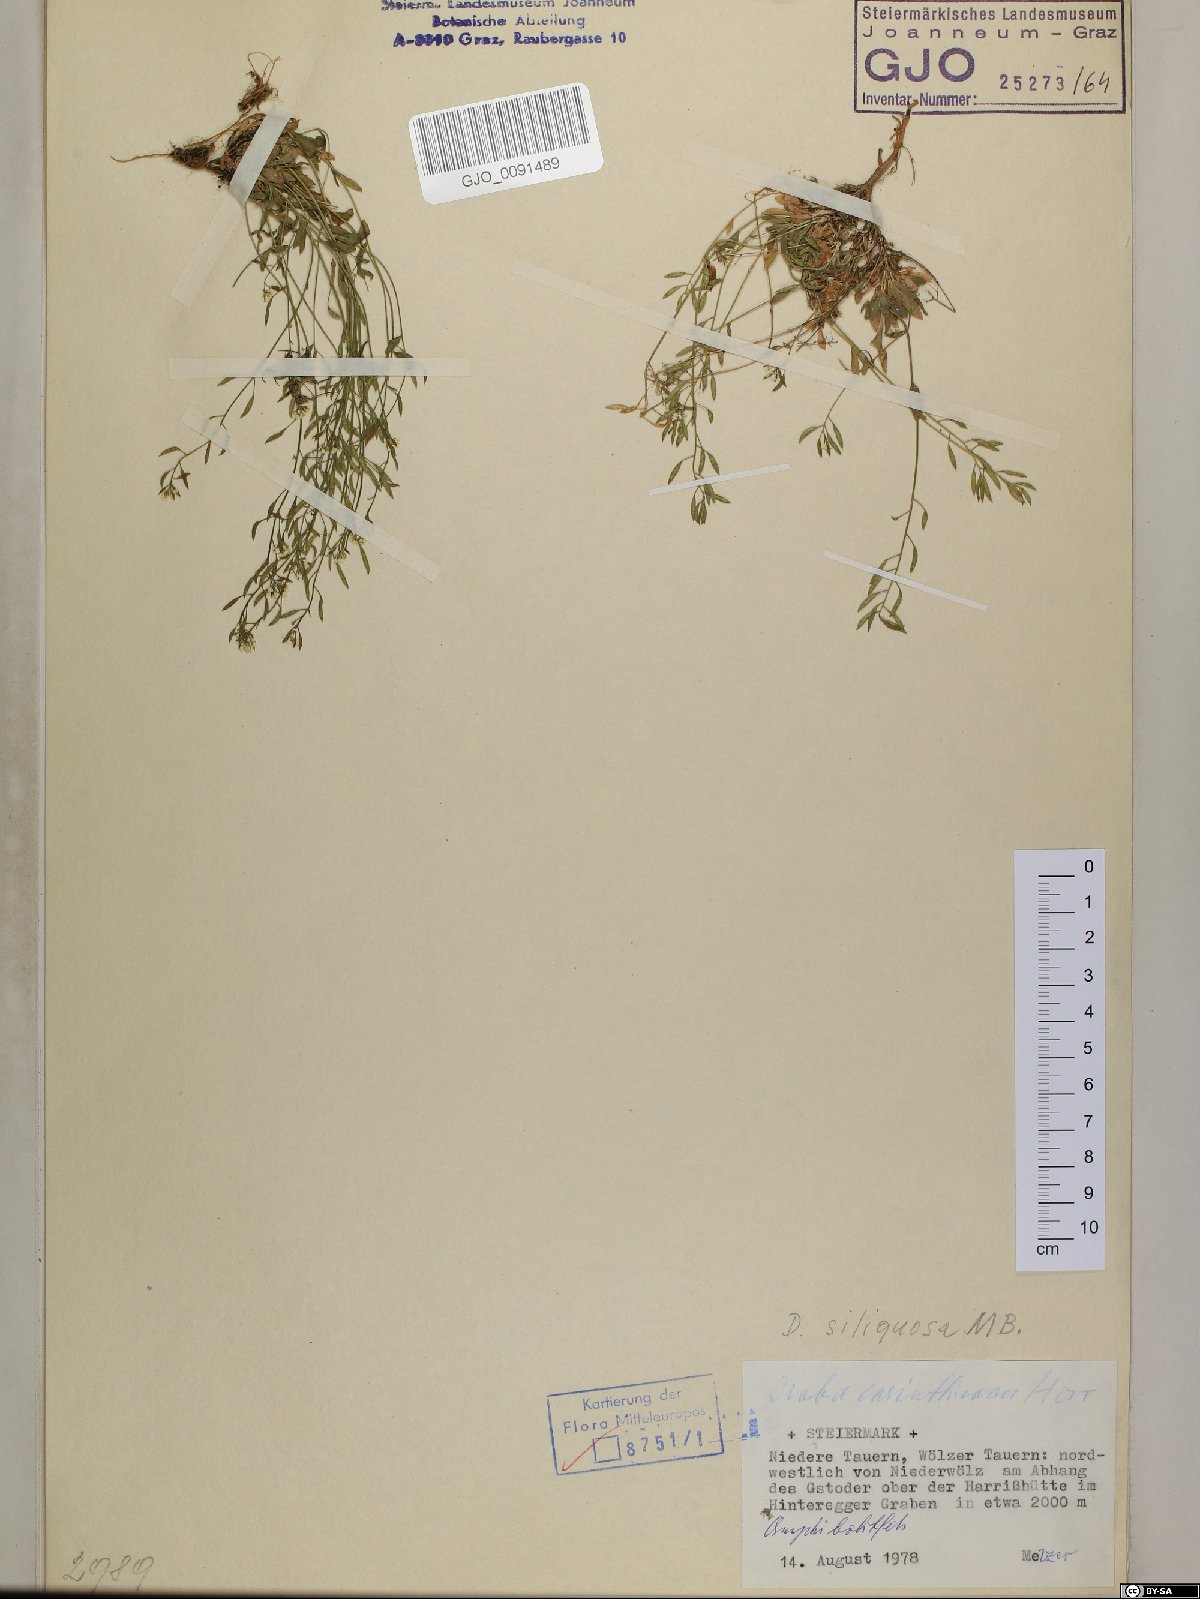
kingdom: Plantae
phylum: Tracheophyta
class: Magnoliopsida
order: Brassicales
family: Brassicaceae
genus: Draba
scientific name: Draba siliquosa
